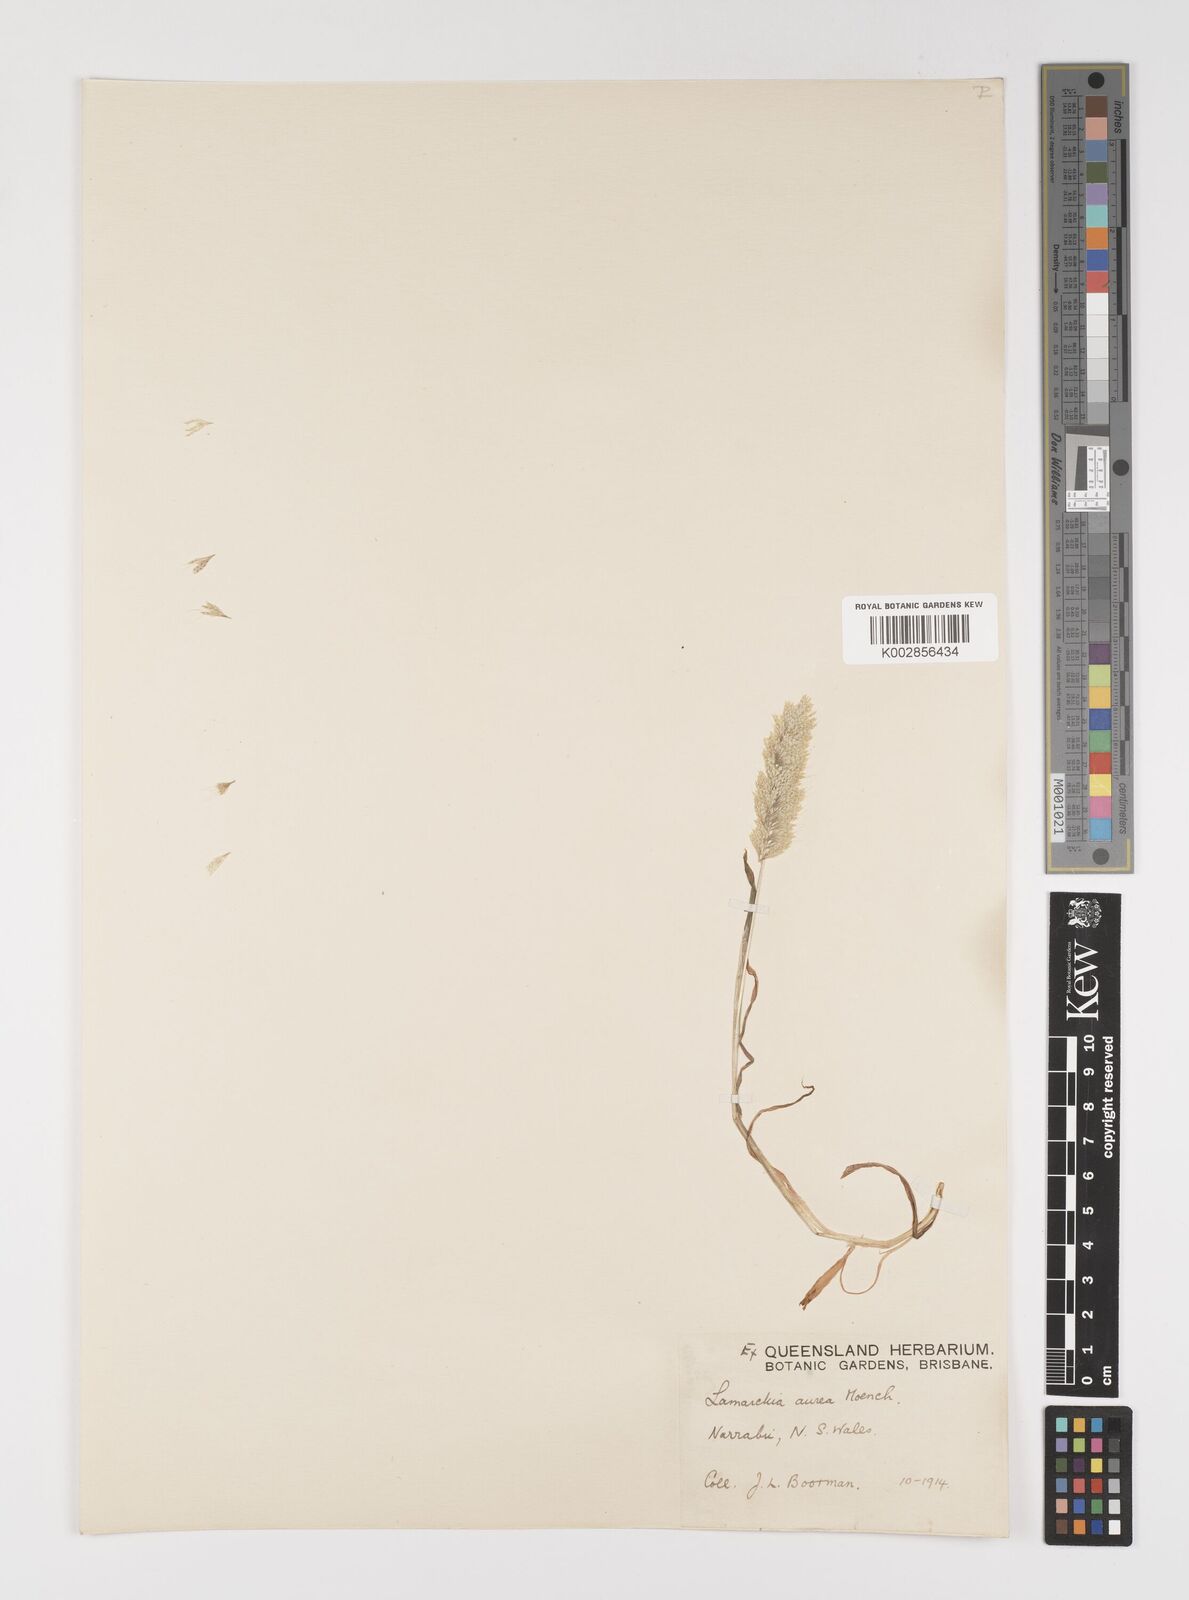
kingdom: Plantae
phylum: Tracheophyta
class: Liliopsida
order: Poales
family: Poaceae
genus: Lamarckia
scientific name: Lamarckia aurea
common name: Golden dog's-tail
